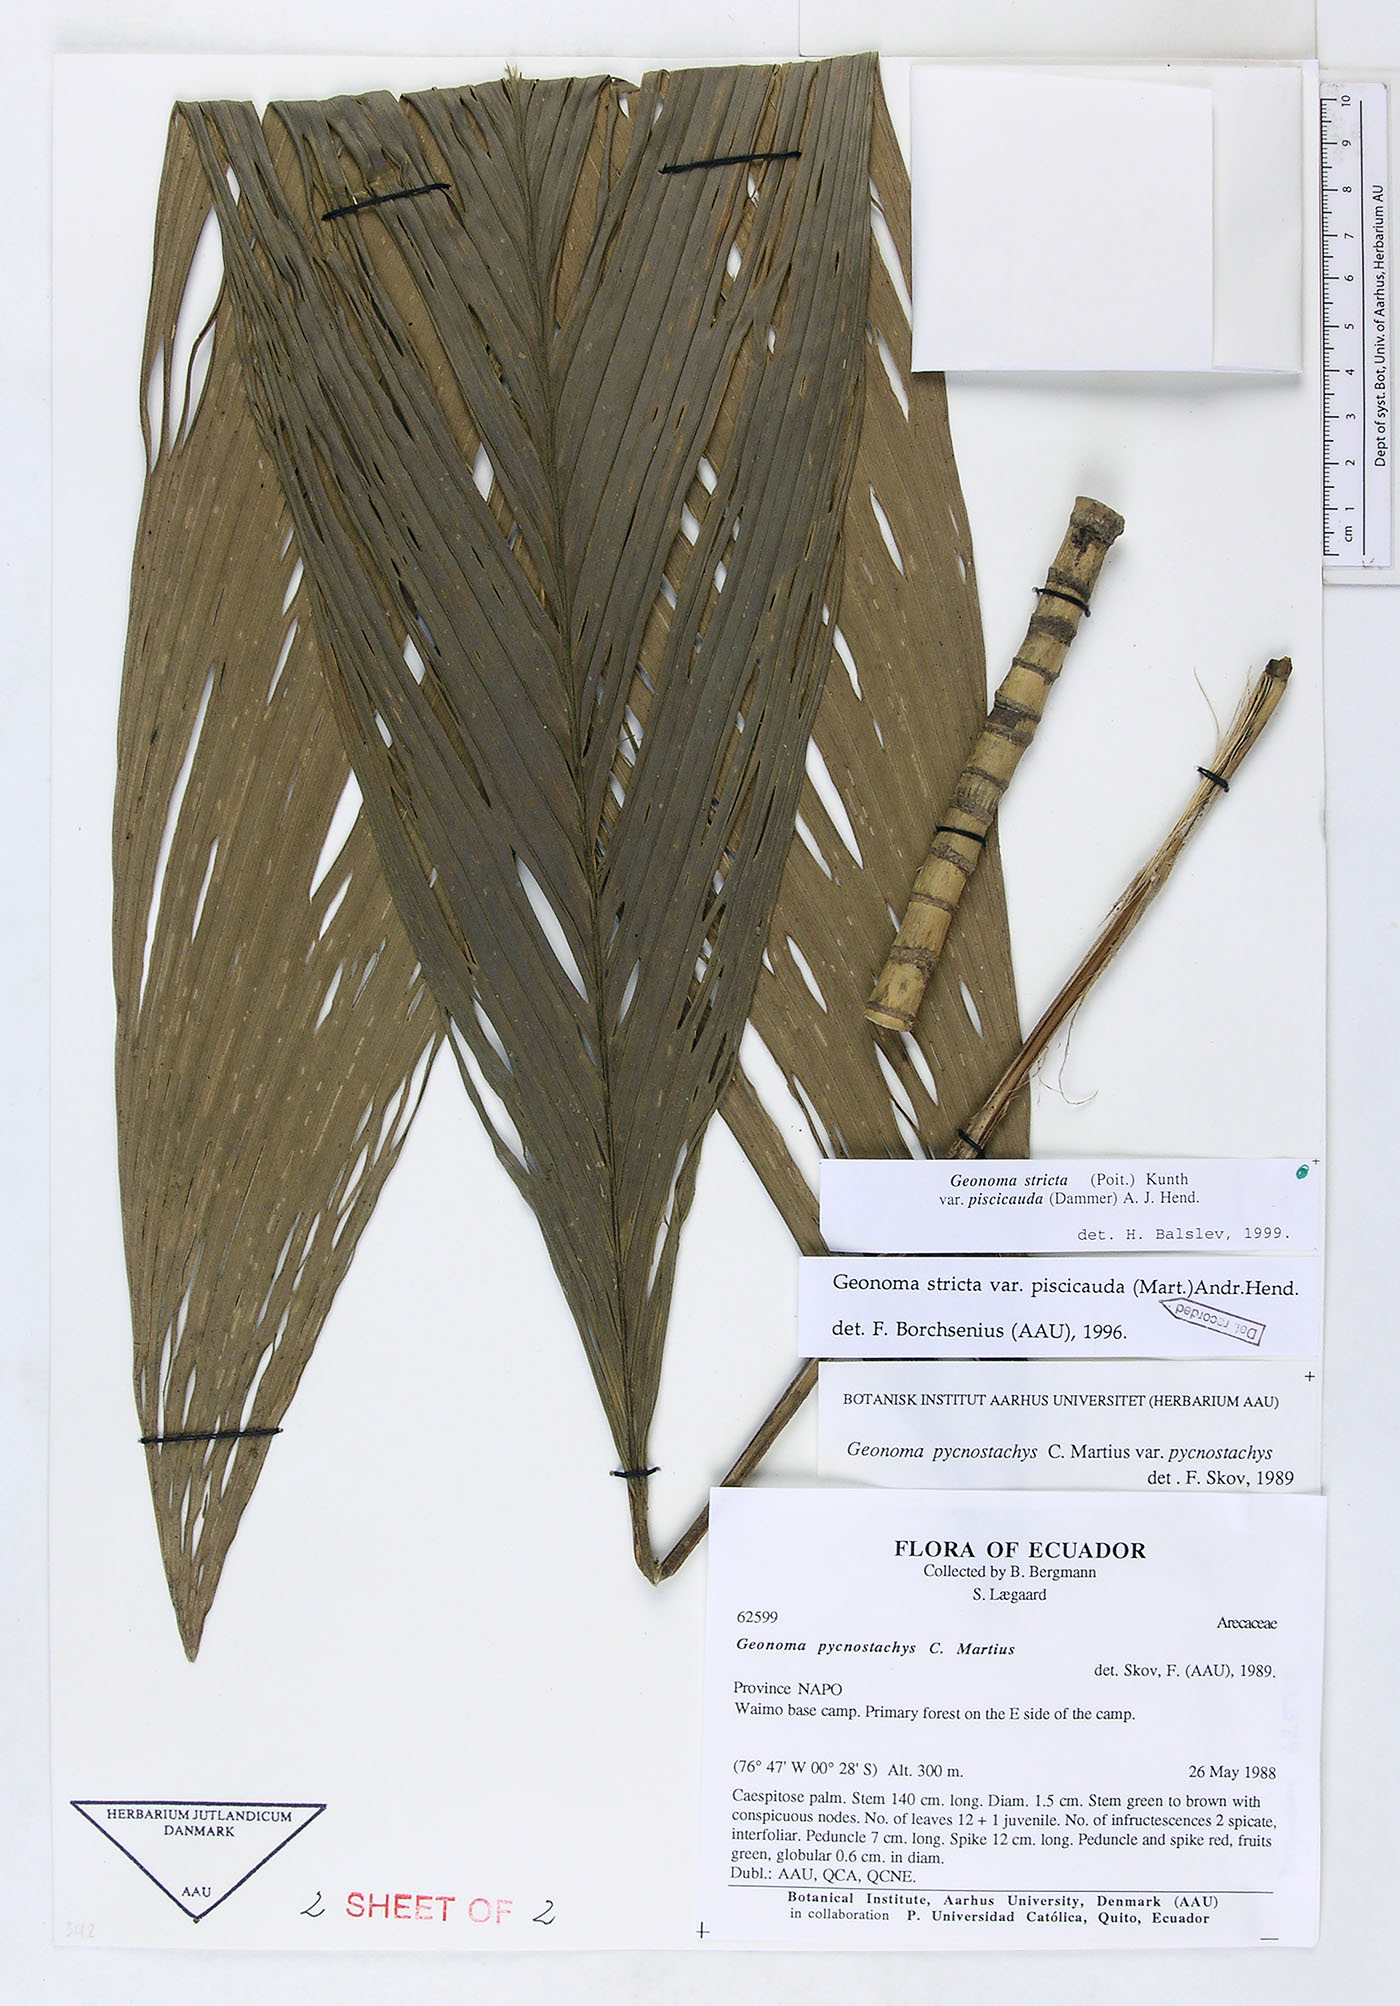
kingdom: Plantae
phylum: Tracheophyta
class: Liliopsida
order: Arecales
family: Arecaceae
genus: Geonoma
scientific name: Geonoma stricta
